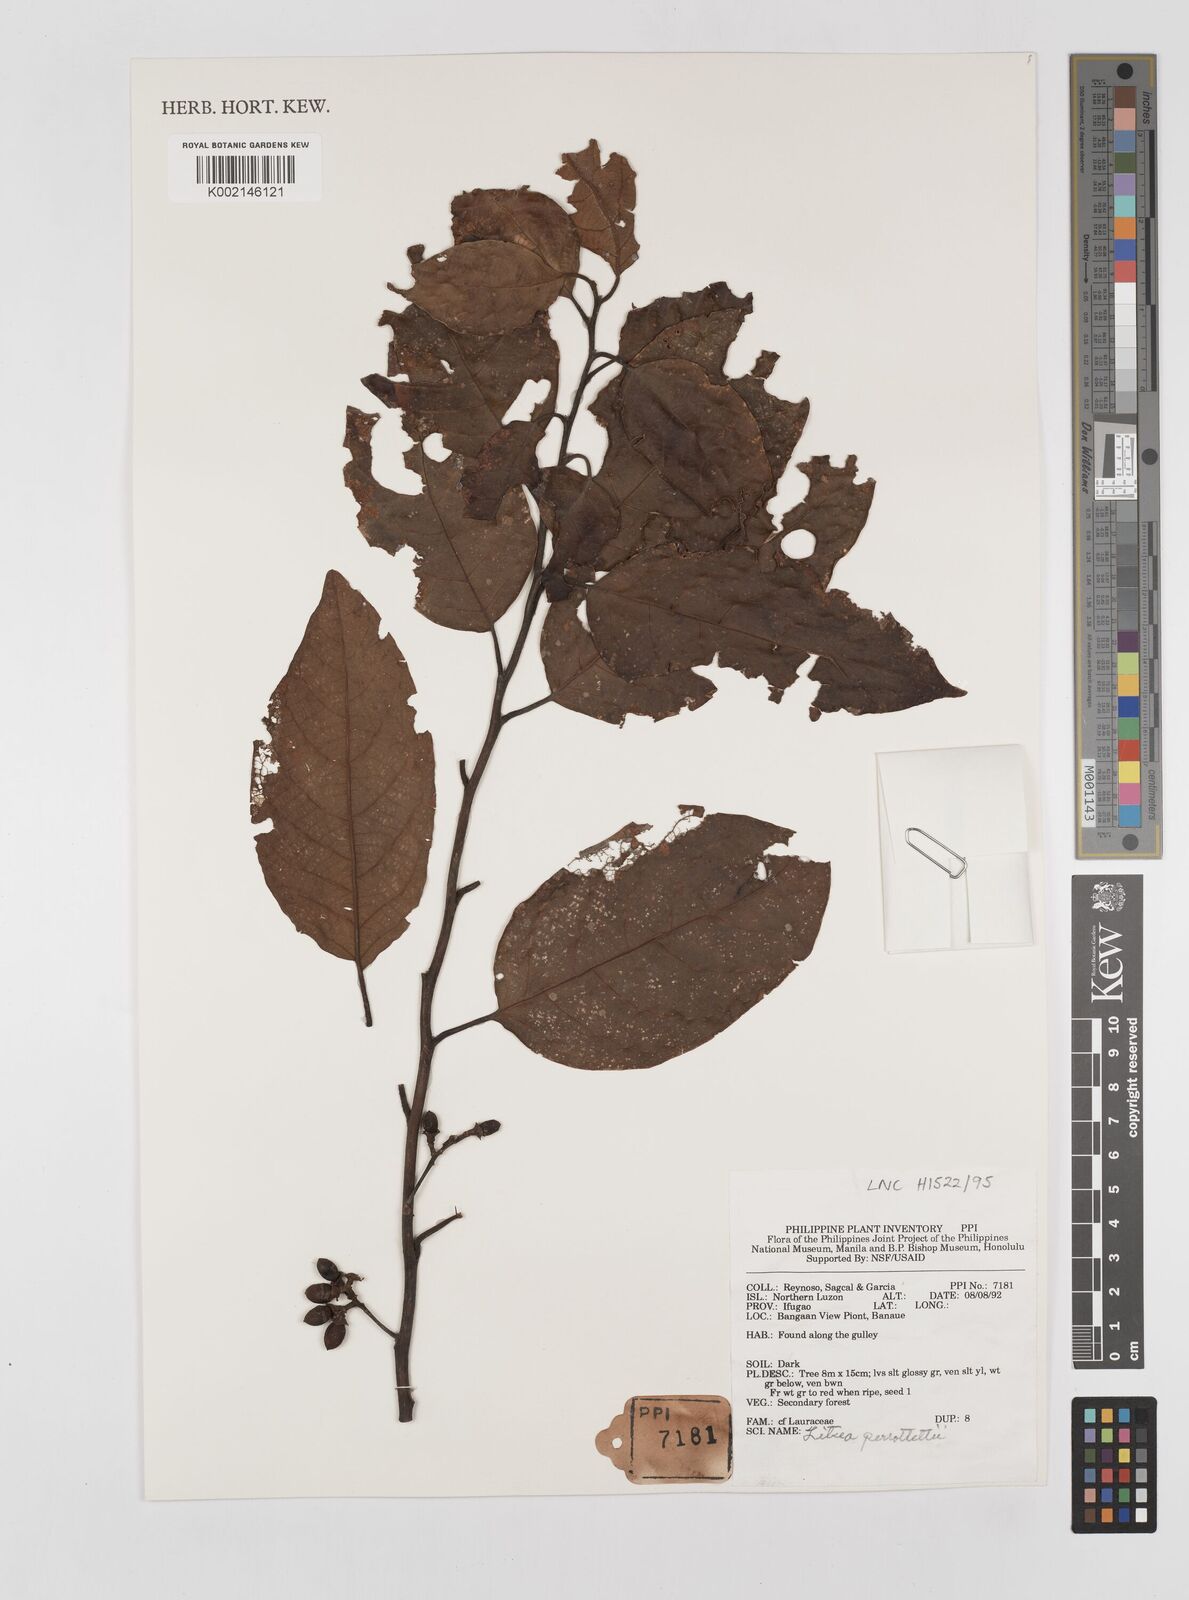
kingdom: Plantae
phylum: Tracheophyta
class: Magnoliopsida
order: Laurales
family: Lauraceae
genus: Litsea
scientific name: Litsea cordata
